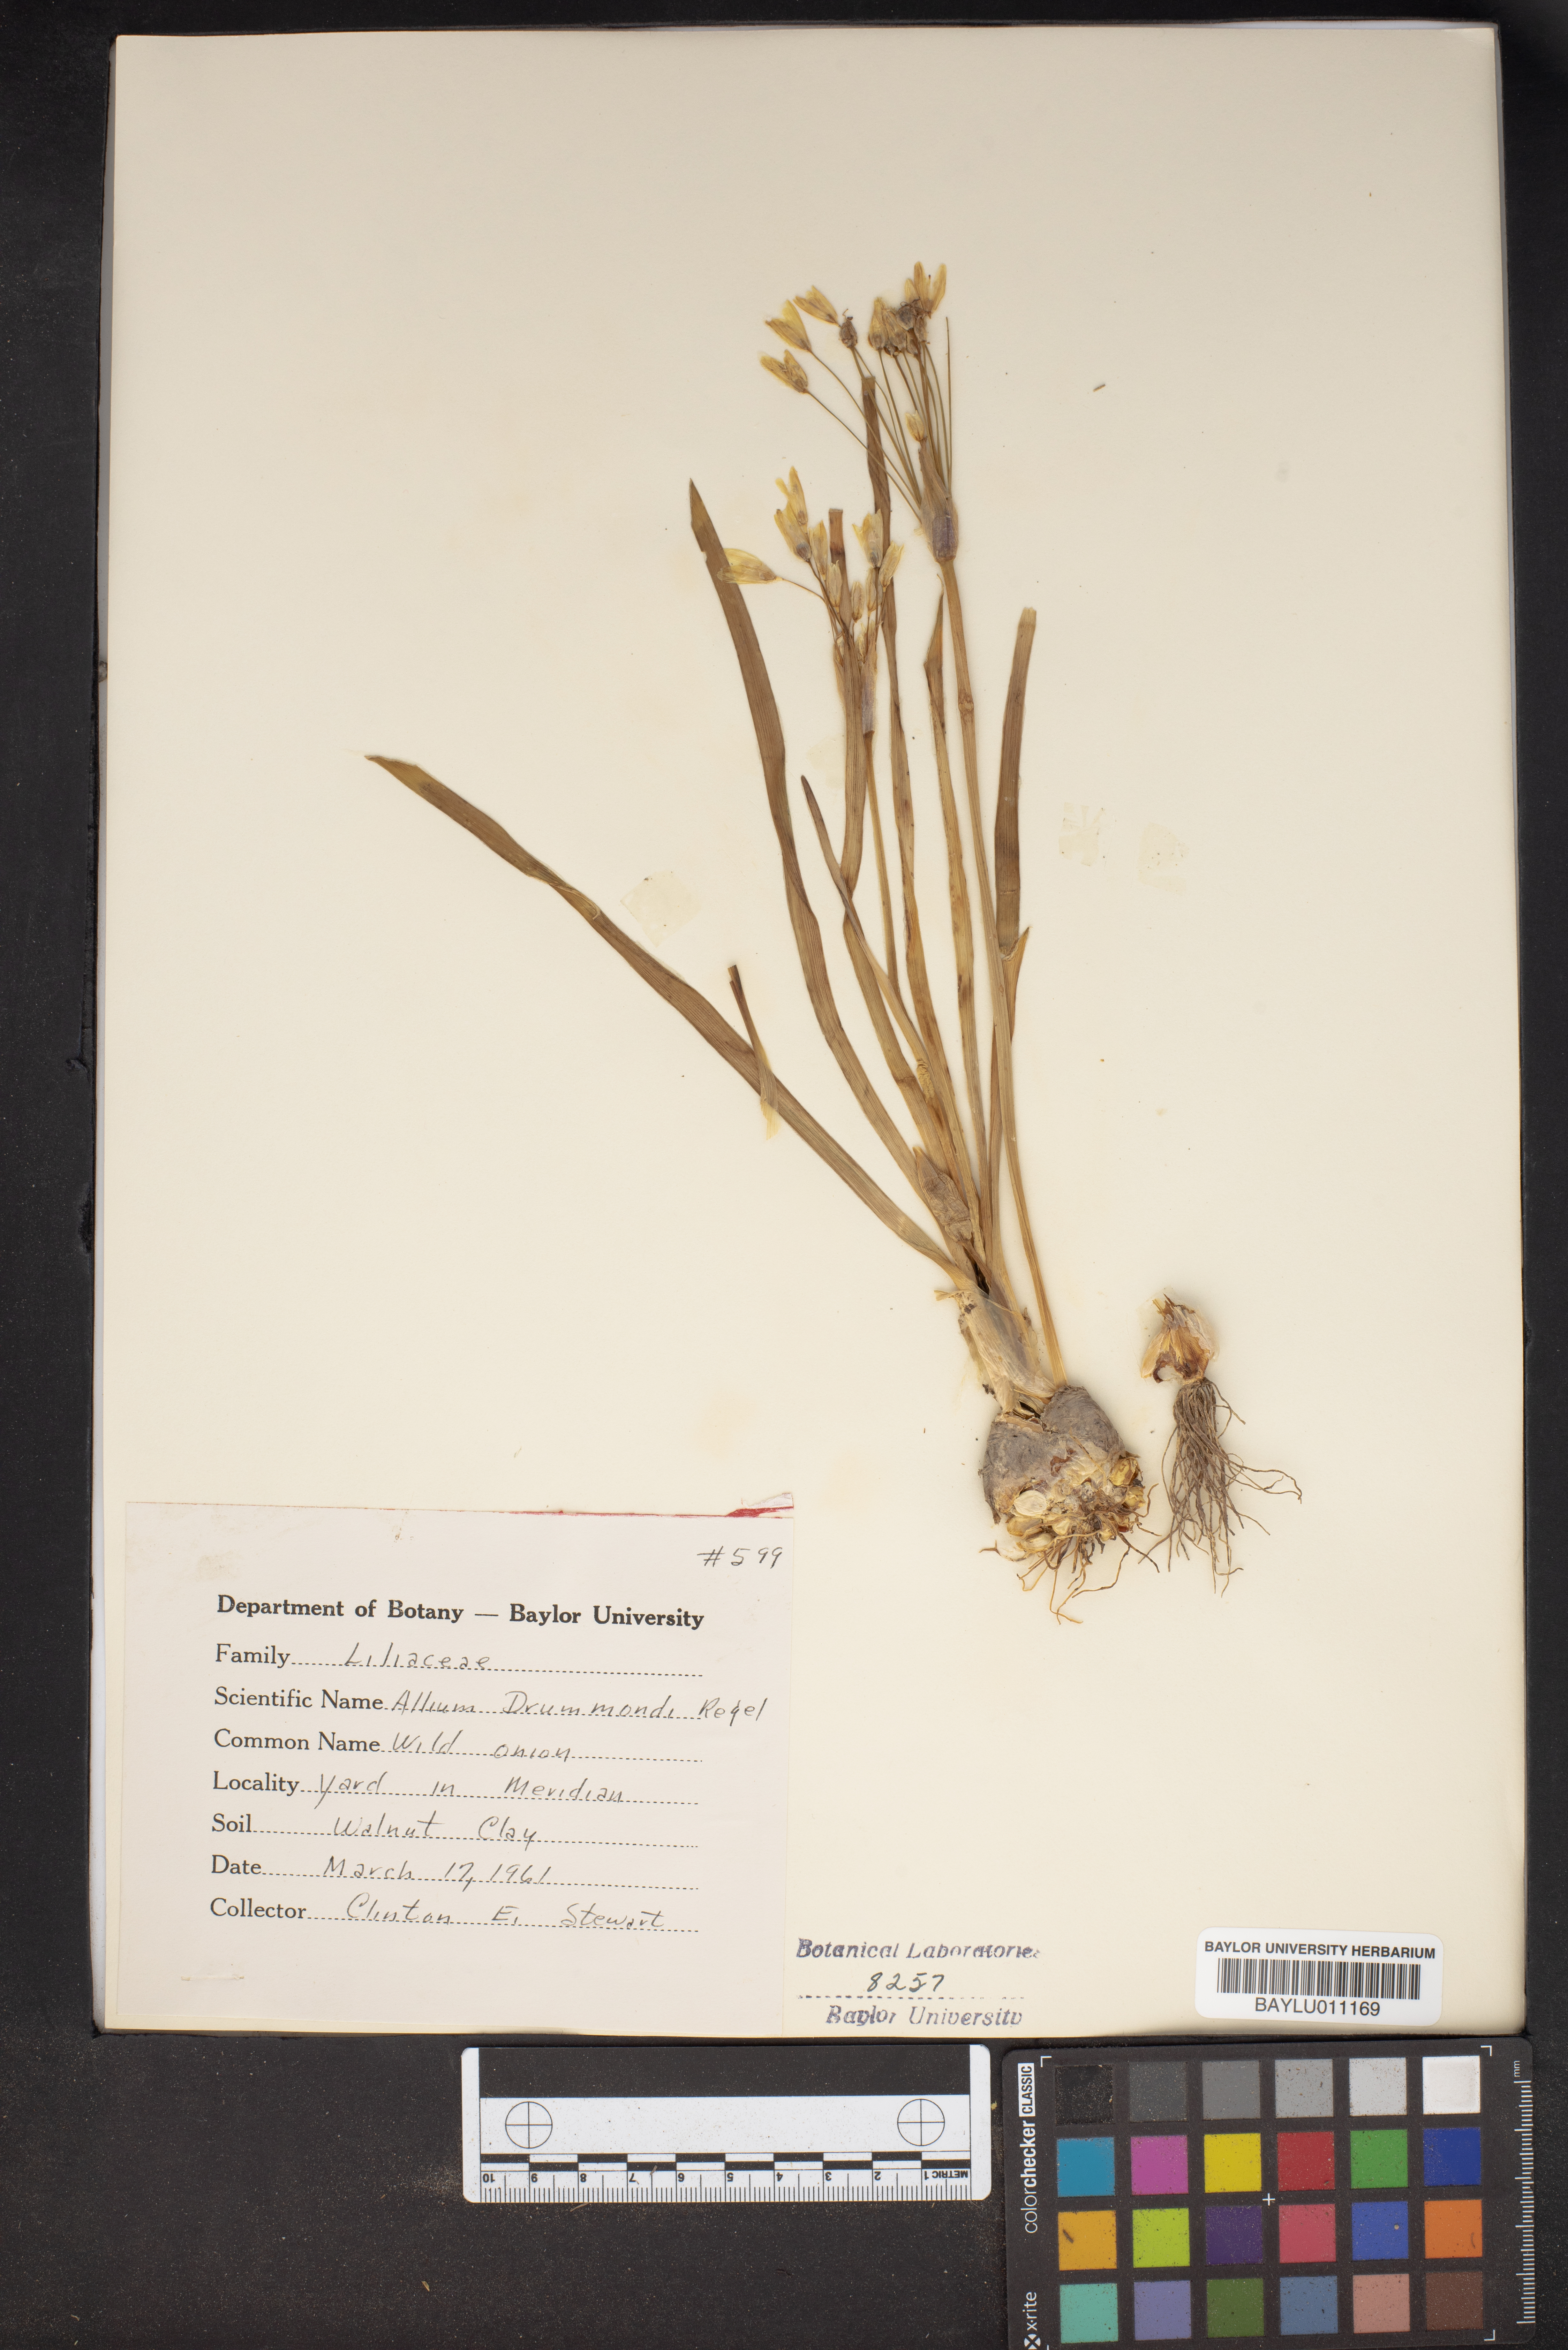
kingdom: Plantae
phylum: Tracheophyta
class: Liliopsida
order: Asparagales
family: Amaryllidaceae
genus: Allium
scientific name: Allium drummondii
